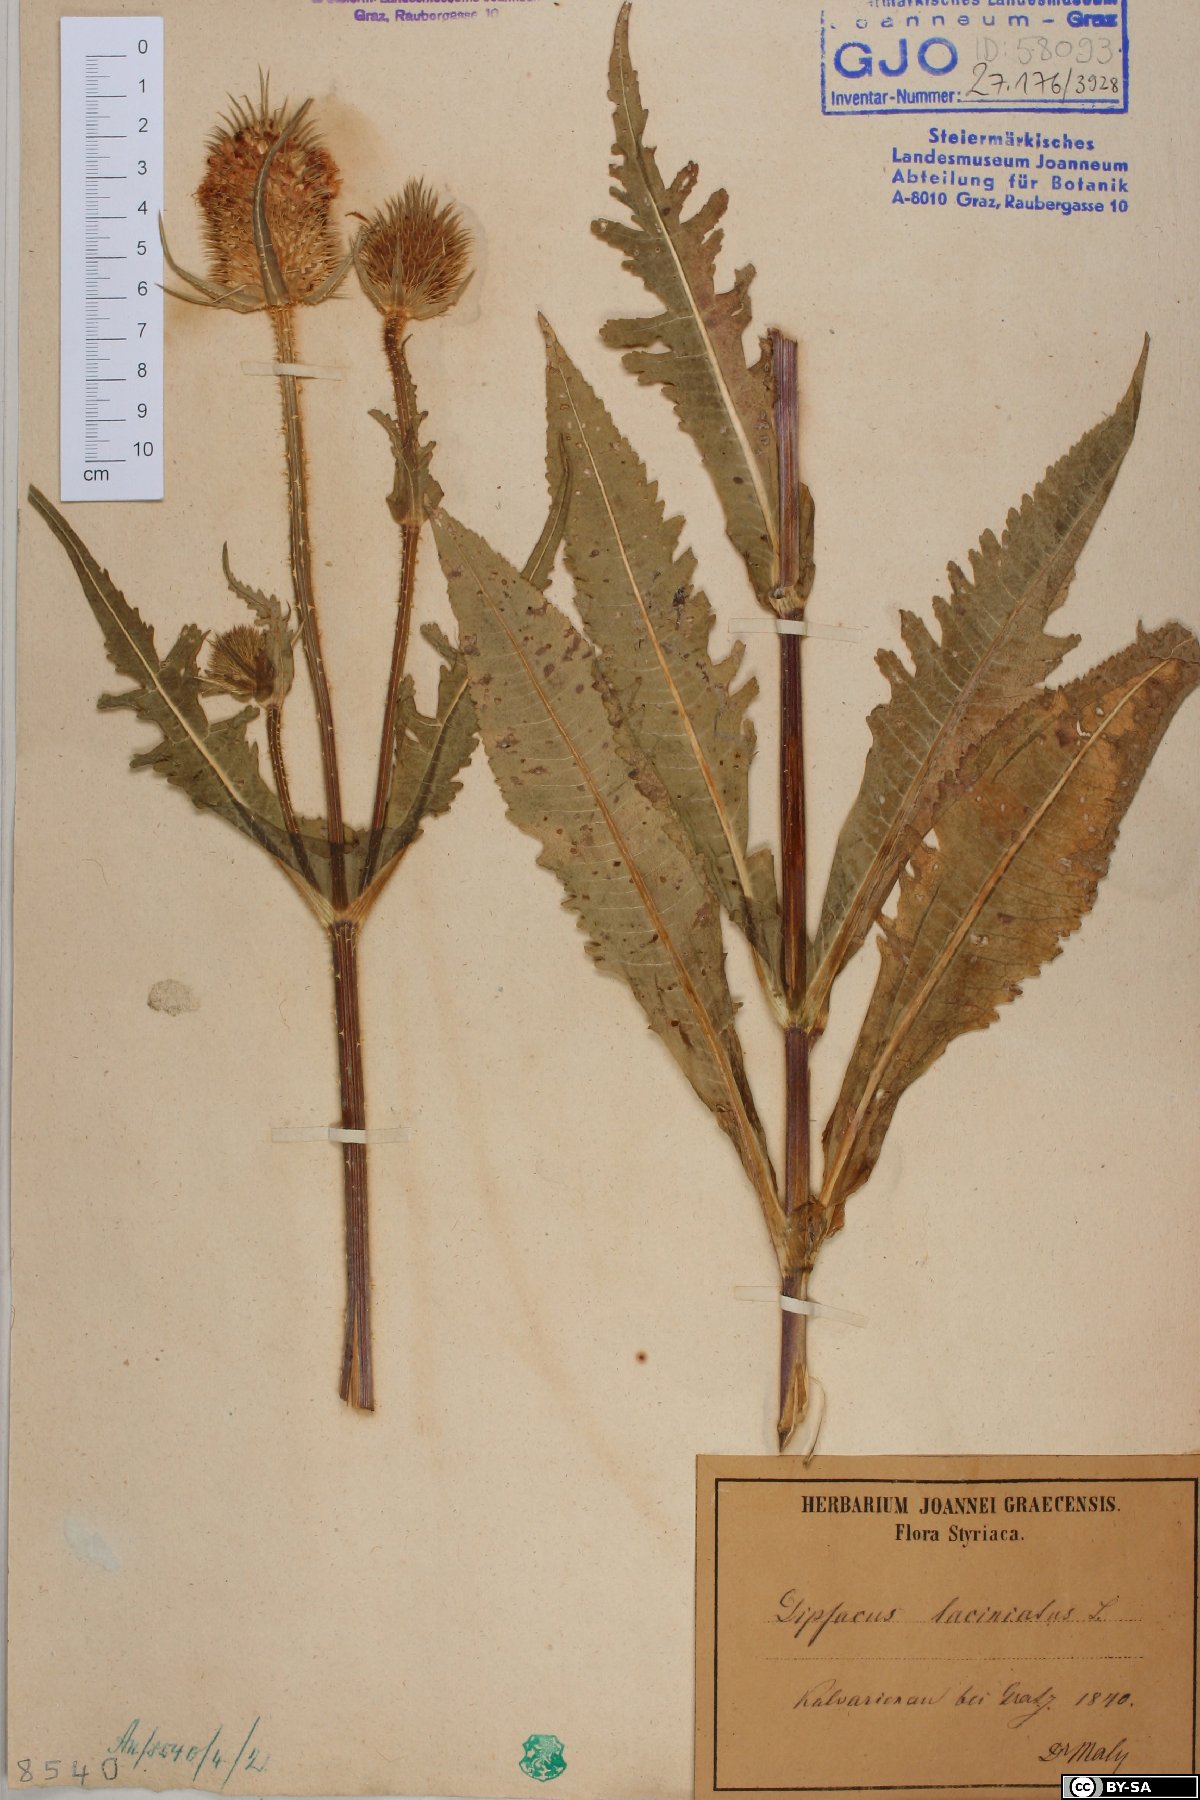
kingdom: Plantae
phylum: Tracheophyta
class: Magnoliopsida
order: Dipsacales
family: Caprifoliaceae
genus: Dipsacus
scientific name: Dipsacus laciniatus
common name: Cut-leaved teasel
